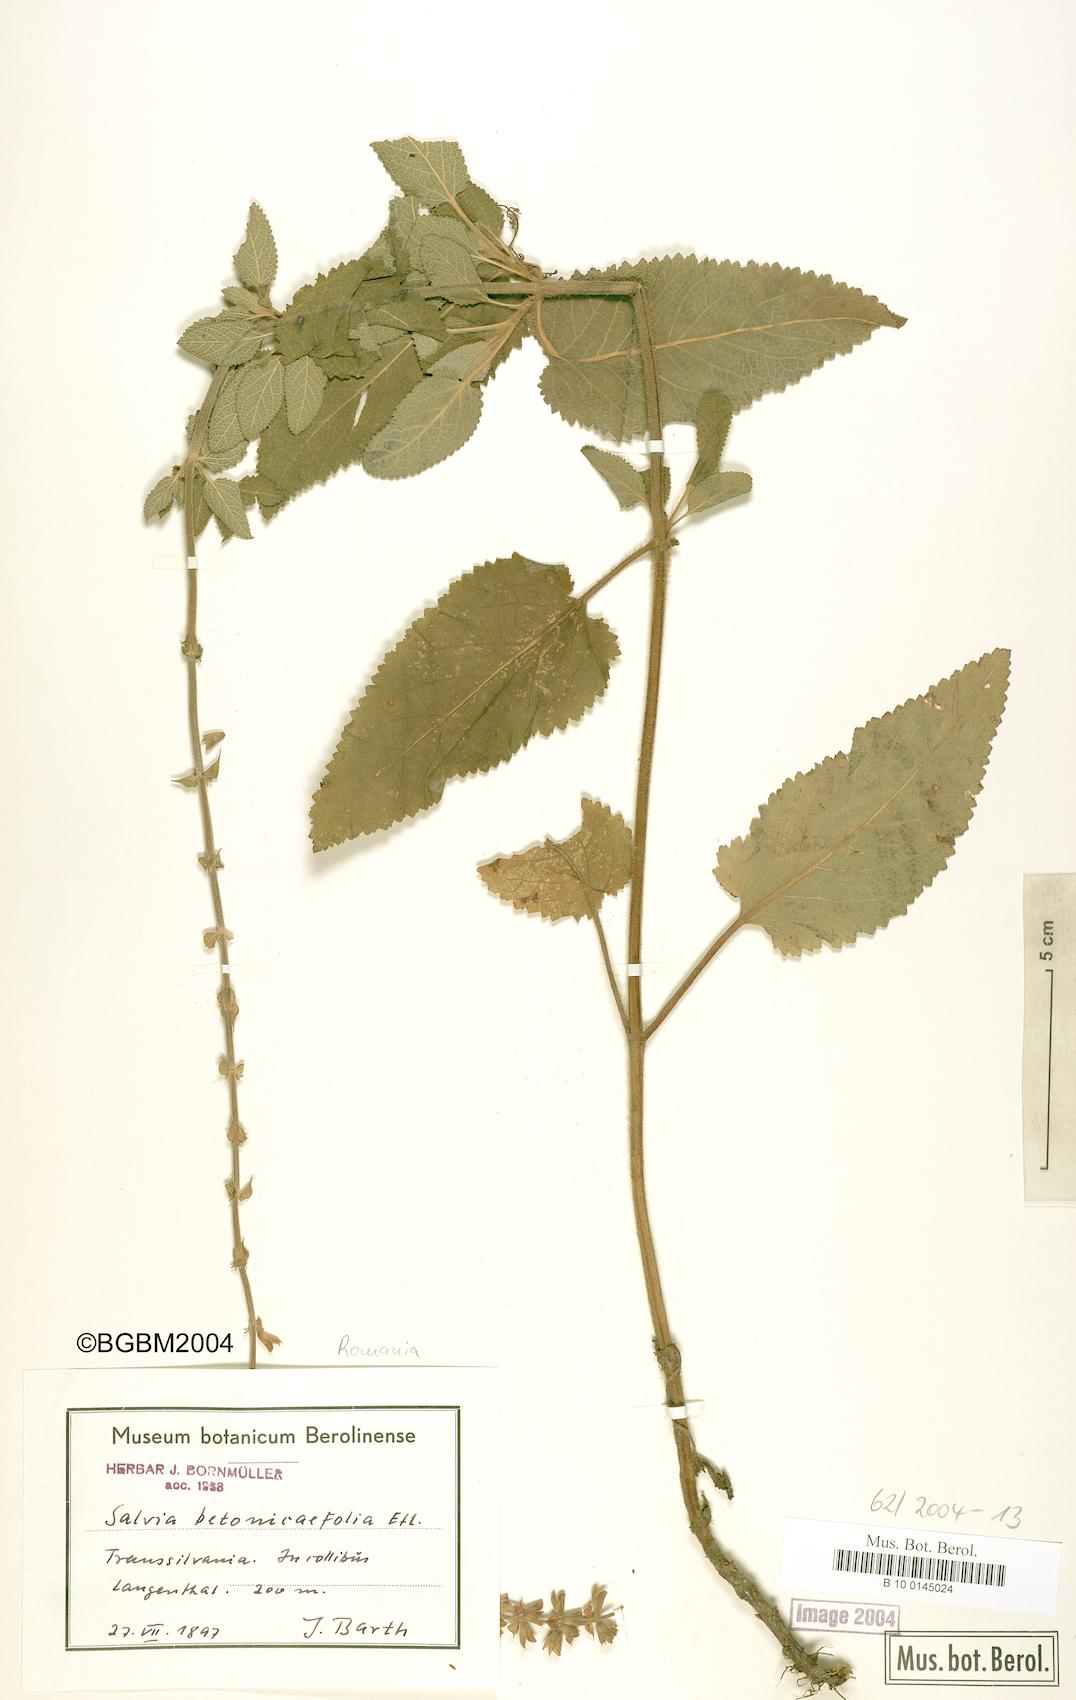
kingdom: Plantae
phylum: Tracheophyta
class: Magnoliopsida
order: Lamiales
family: Lamiaceae
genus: Salvia
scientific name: Salvia
